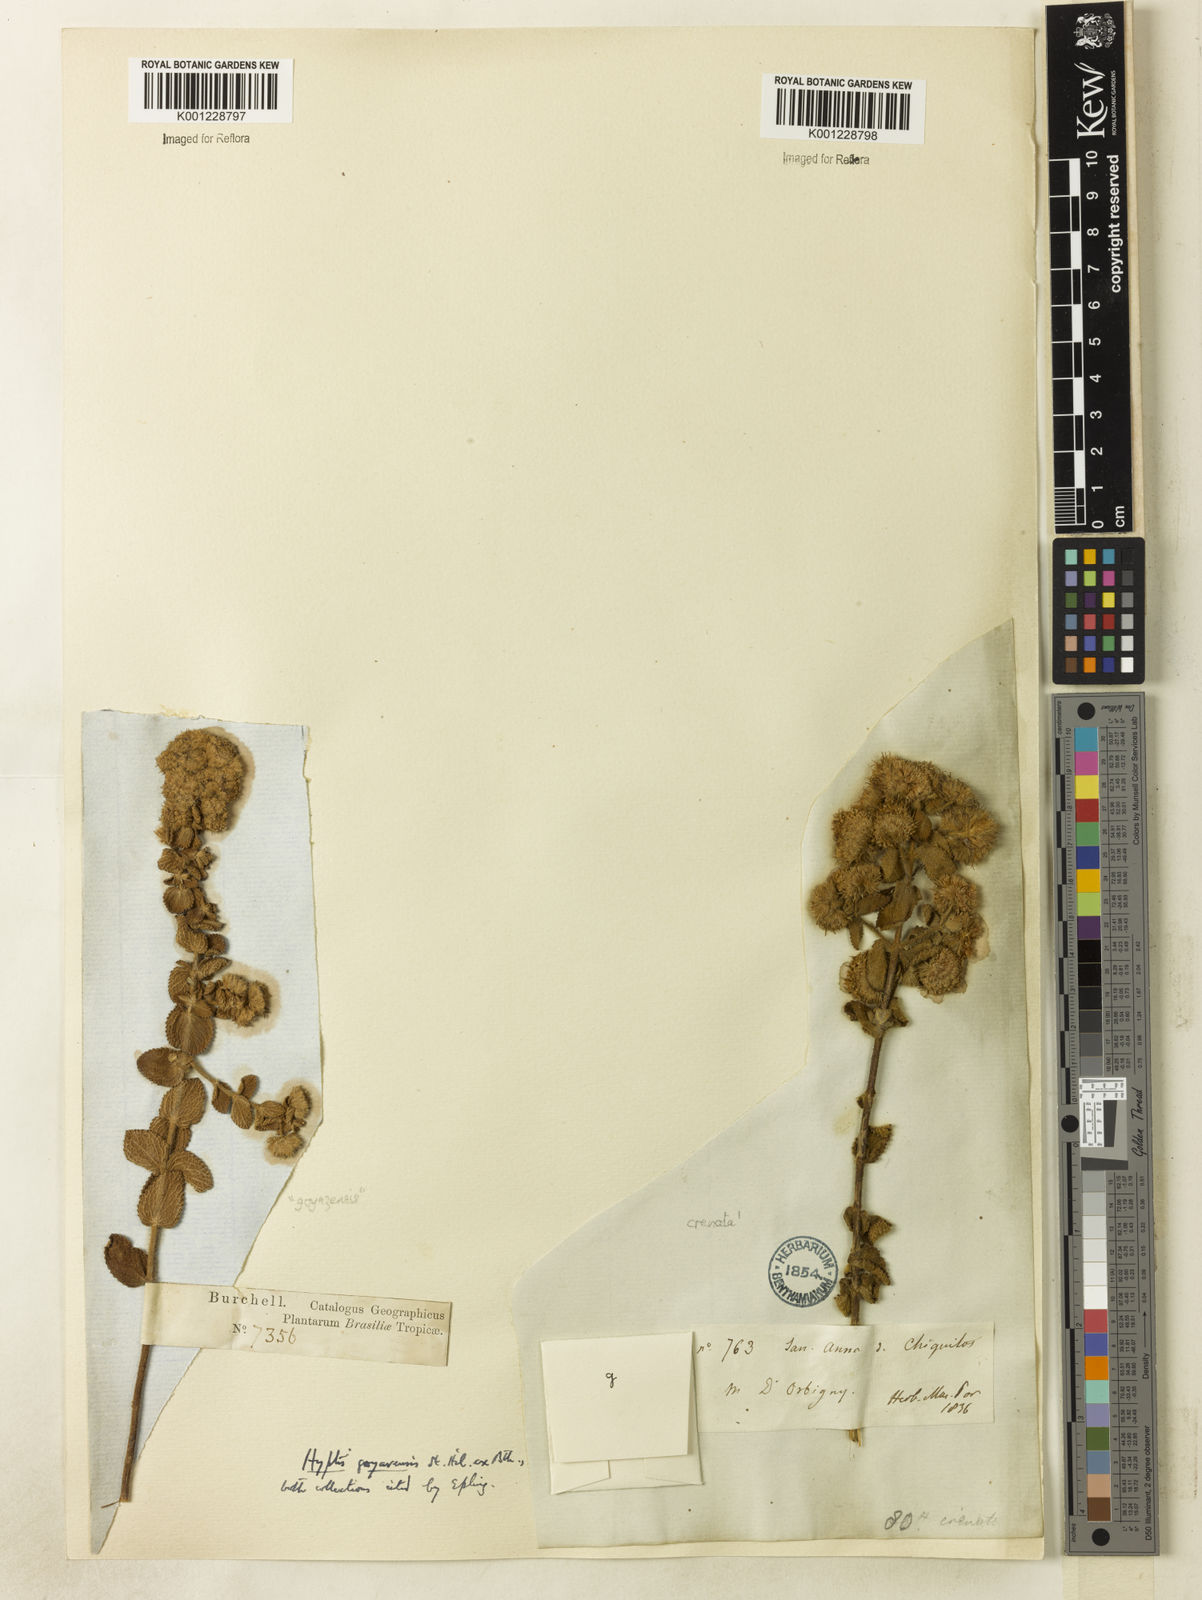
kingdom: Plantae
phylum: Tracheophyta
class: Magnoliopsida
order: Lamiales
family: Lamiaceae
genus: Hyptis
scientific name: Hyptis goyazensis
